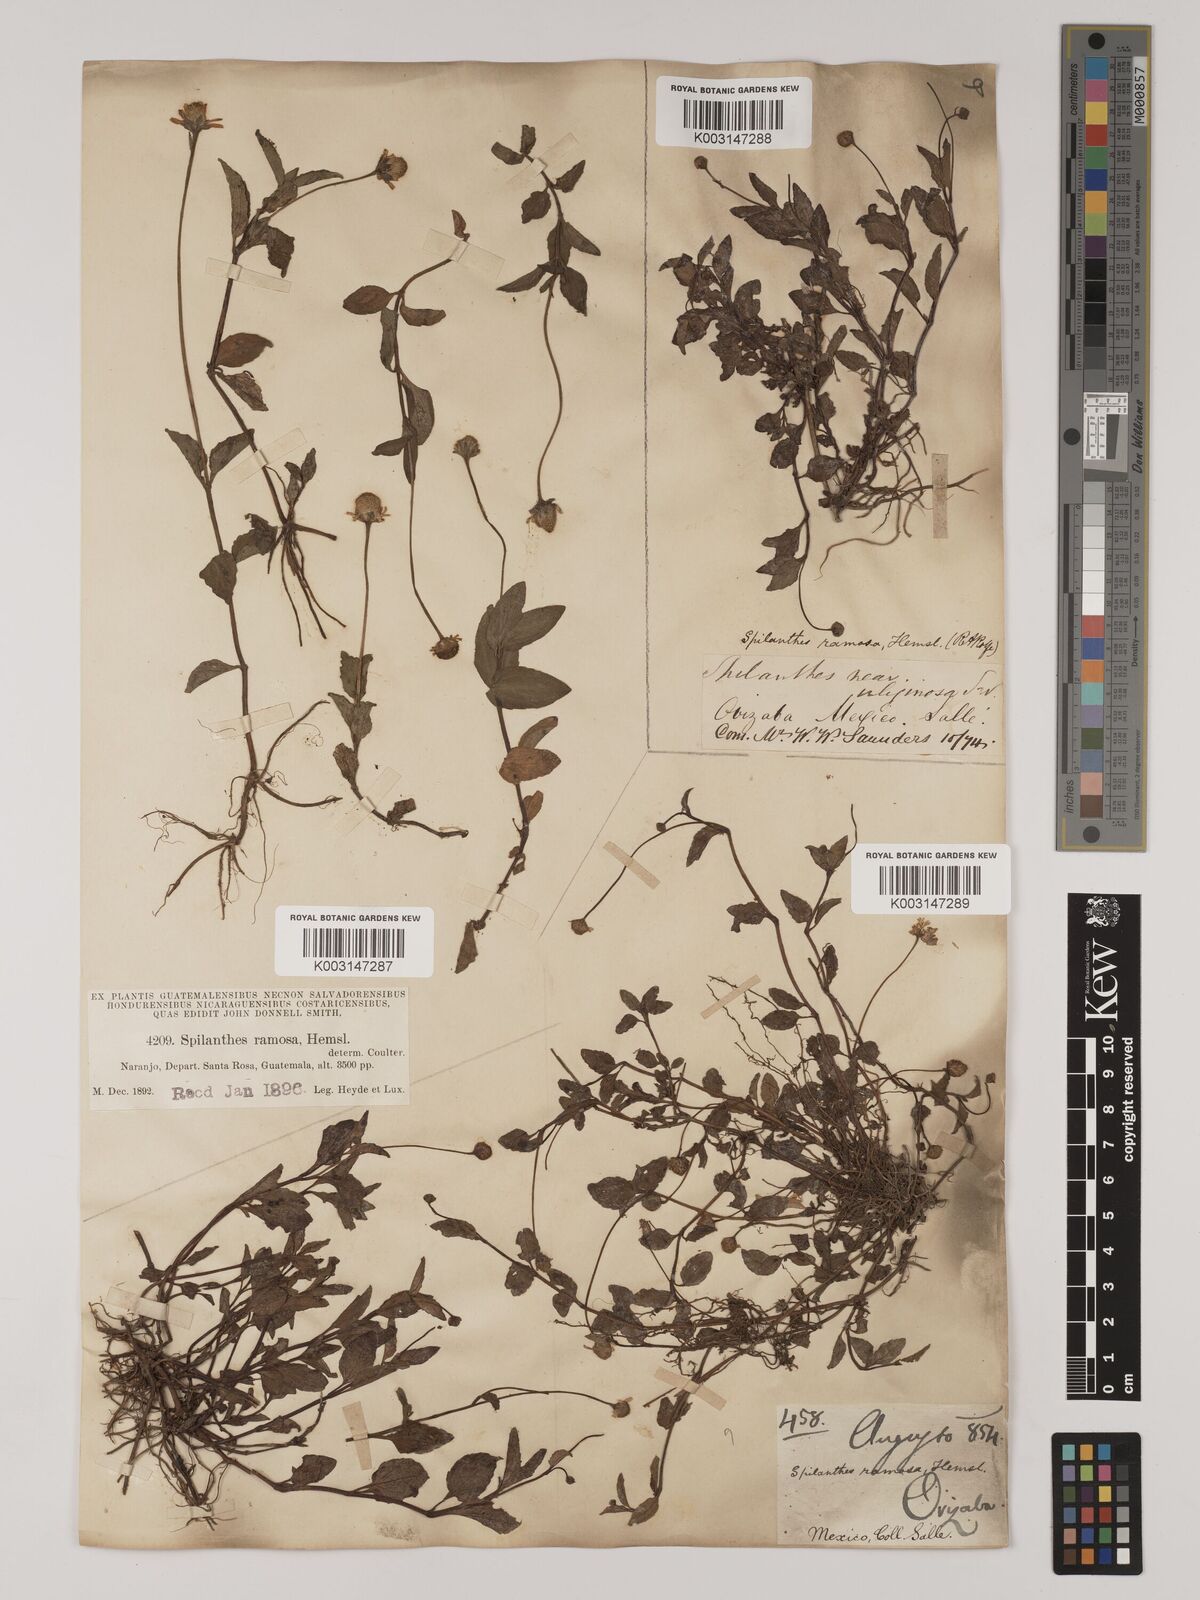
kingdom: Plantae
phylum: Tracheophyta
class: Magnoliopsida
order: Asterales
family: Asteraceae
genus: Acmella
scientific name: Acmella ramosa
